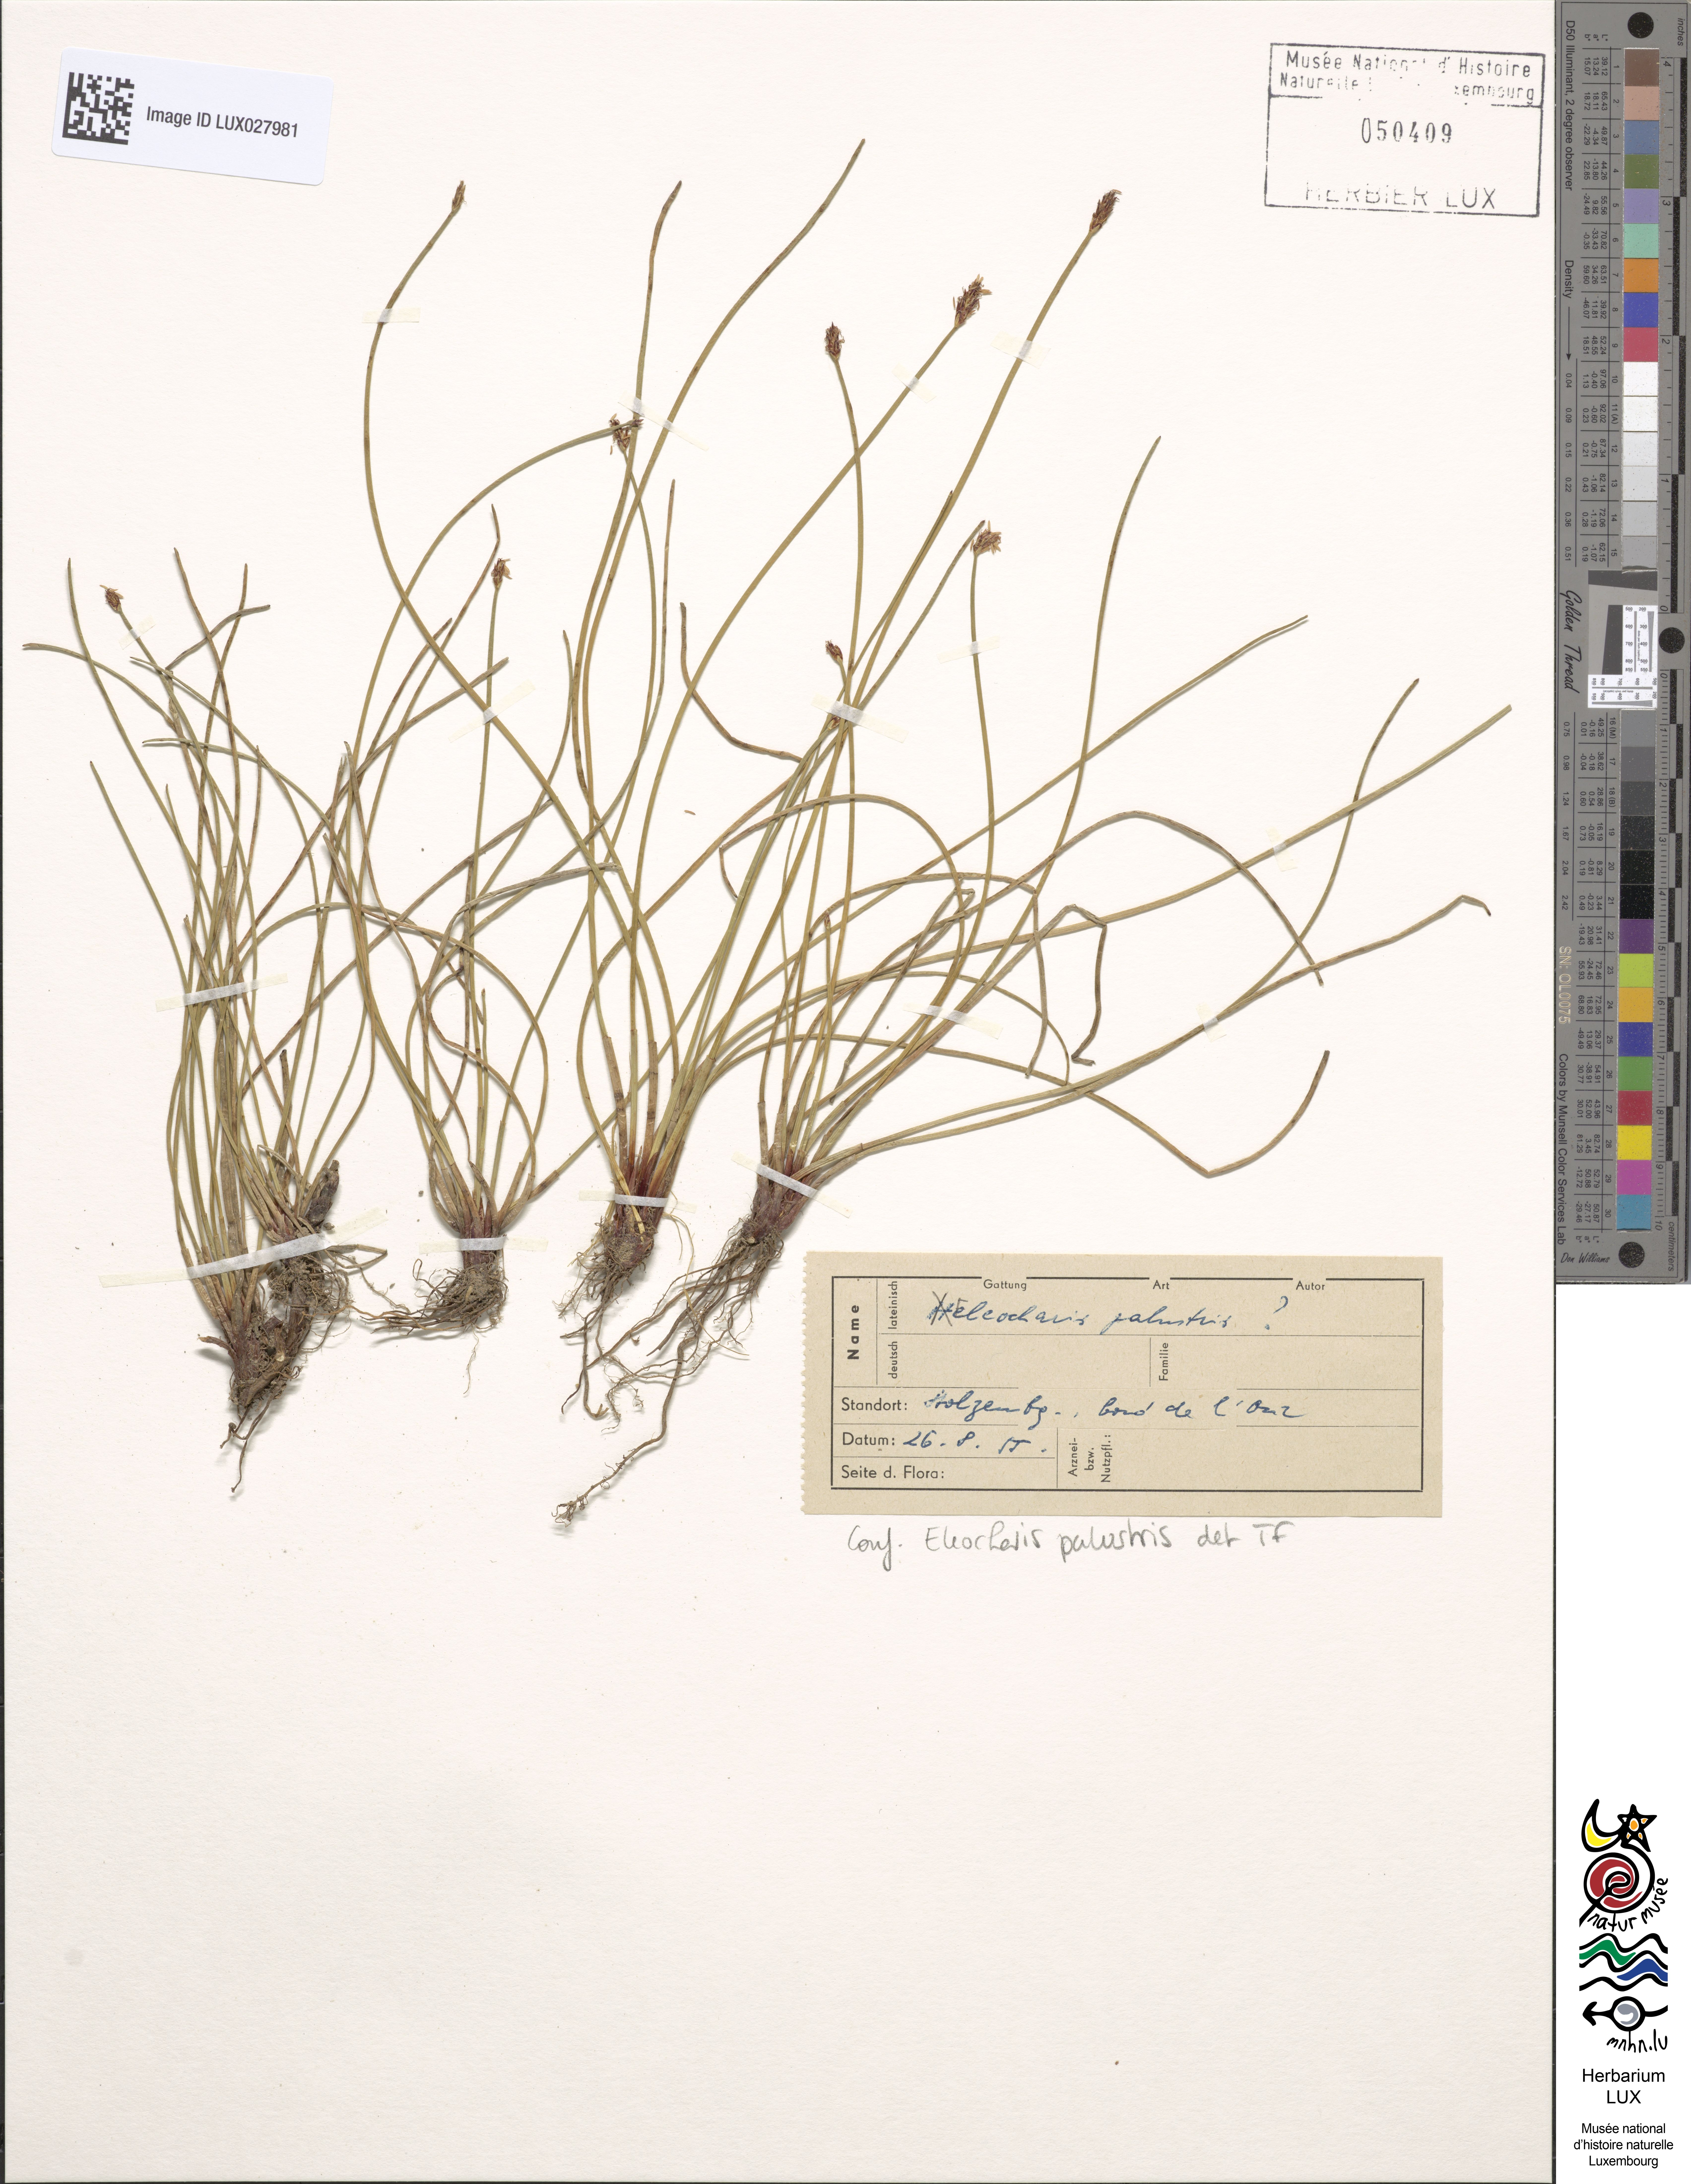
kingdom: Plantae
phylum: Tracheophyta
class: Liliopsida
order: Poales
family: Cyperaceae
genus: Eleocharis
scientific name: Eleocharis palustris
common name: Common spike-rush
